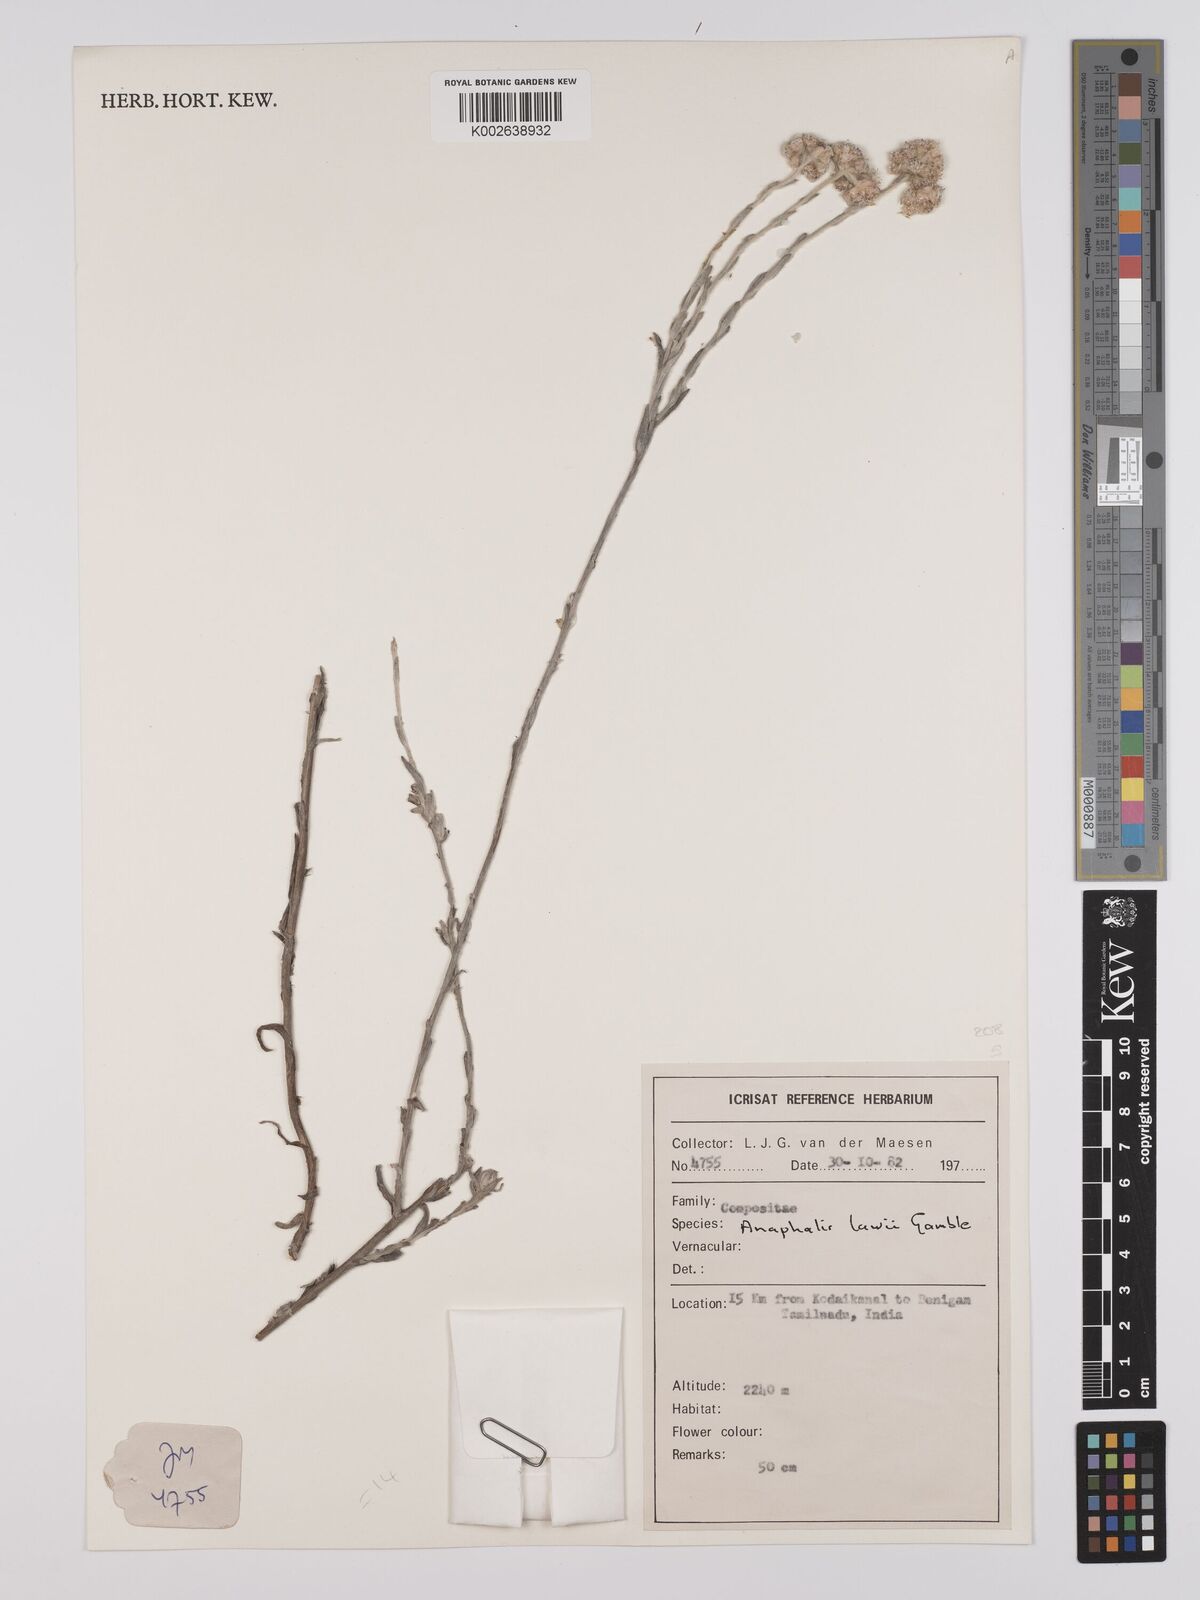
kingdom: Plantae
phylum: Tracheophyta
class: Magnoliopsida
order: Asterales
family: Asteraceae
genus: Anaphalis
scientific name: Anaphalis lawii
